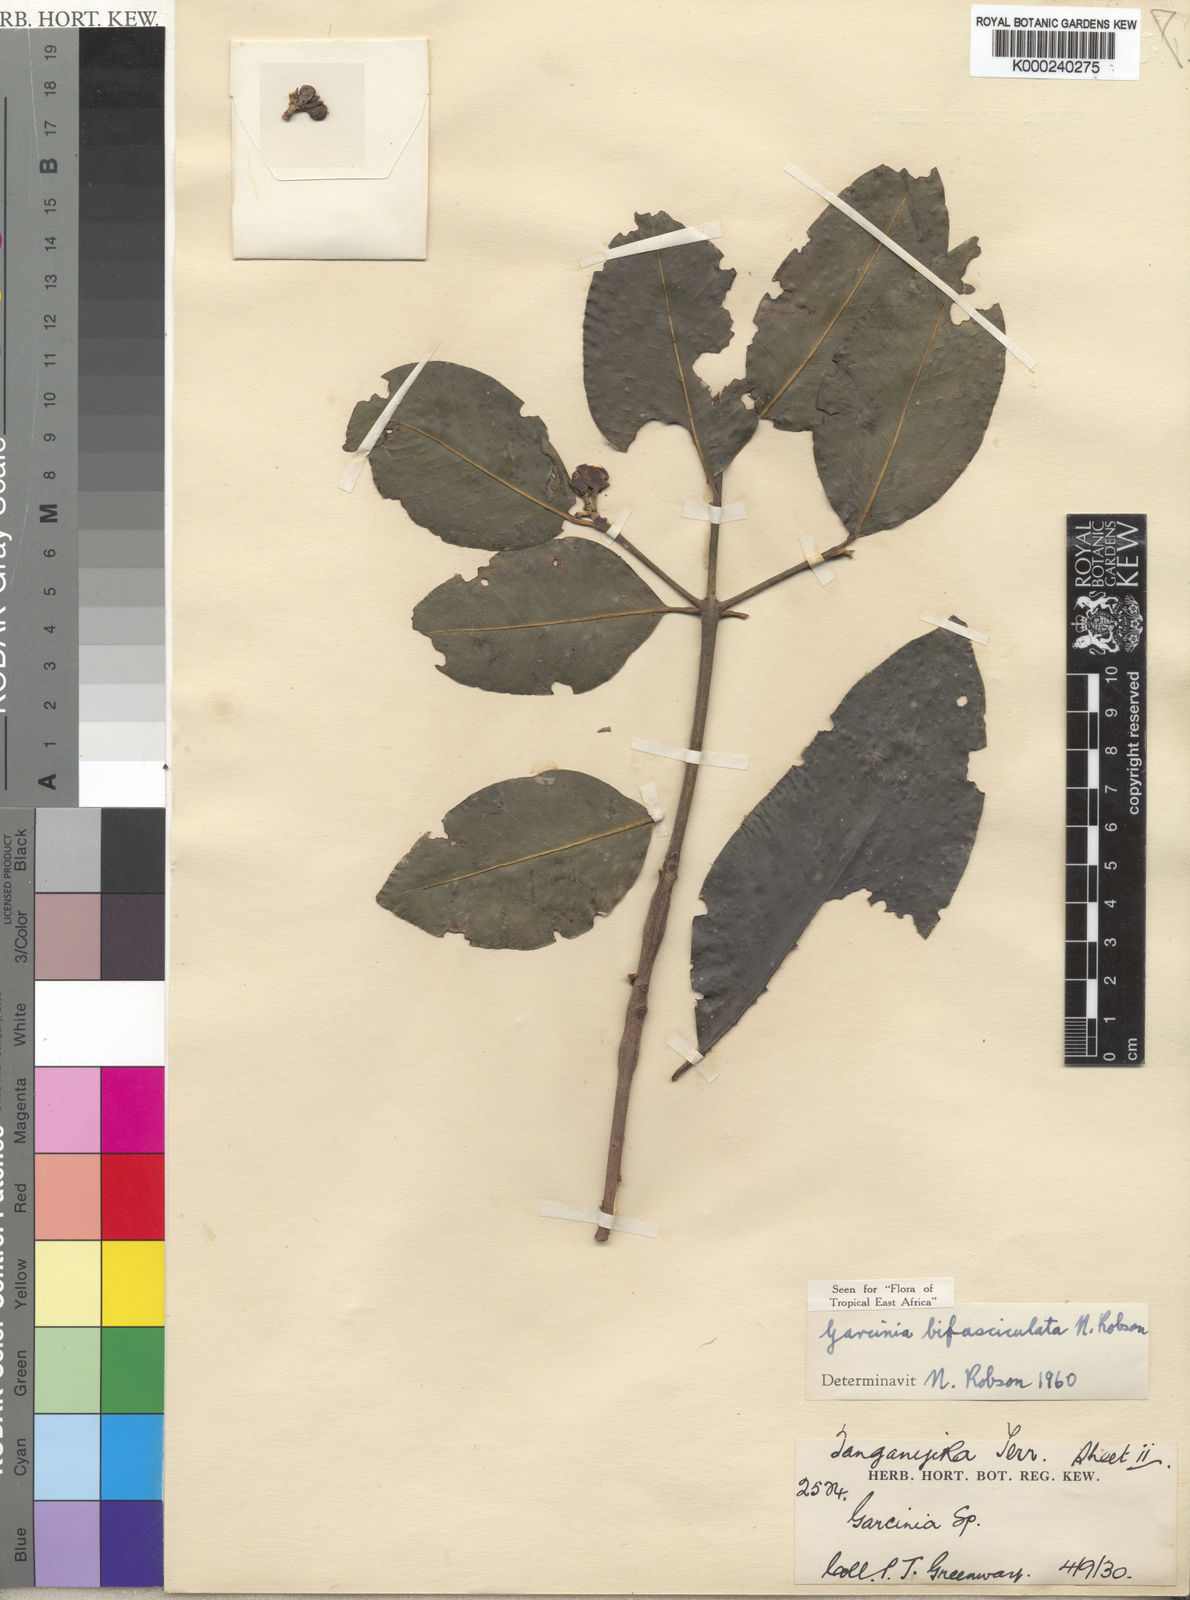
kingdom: Plantae
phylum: Tracheophyta
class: Magnoliopsida
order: Malpighiales
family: Clusiaceae
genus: Garcinia
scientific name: Garcinia bifasciculata
